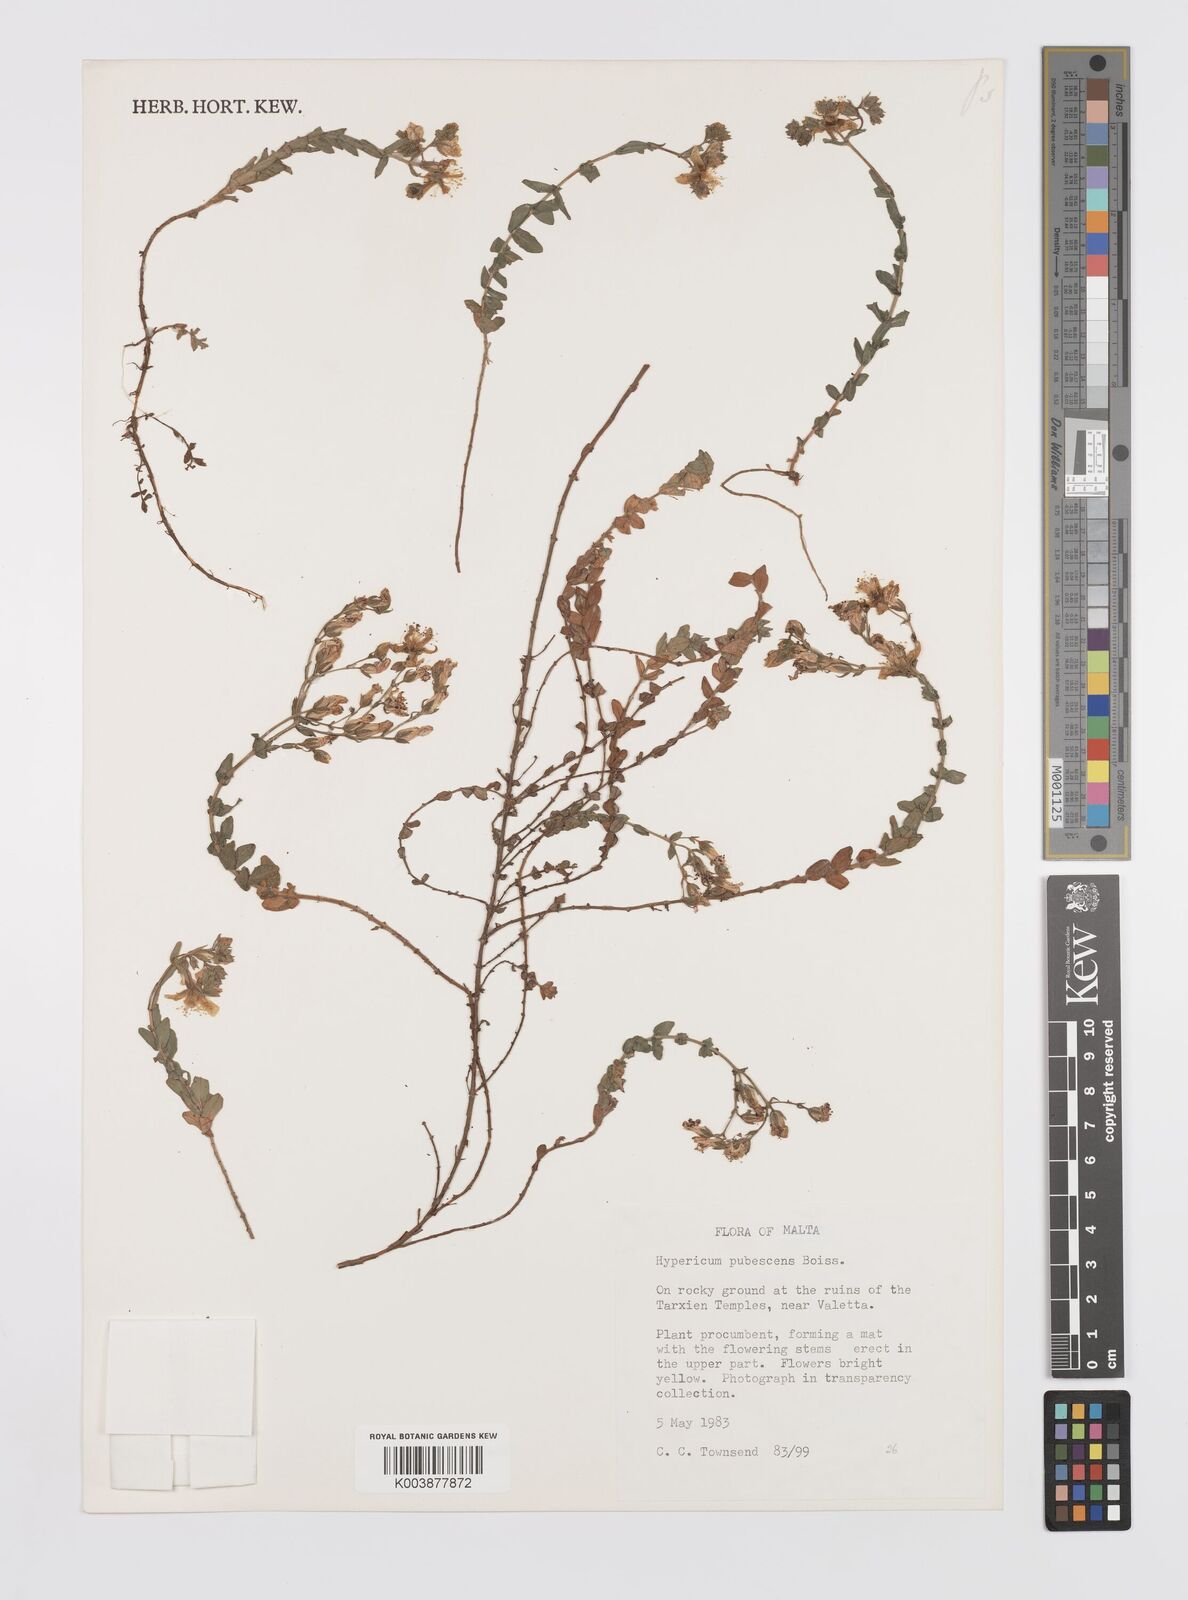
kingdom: Plantae
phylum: Tracheophyta
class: Magnoliopsida
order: Malpighiales
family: Hypericaceae
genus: Hypericum
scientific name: Hypericum pubescens
